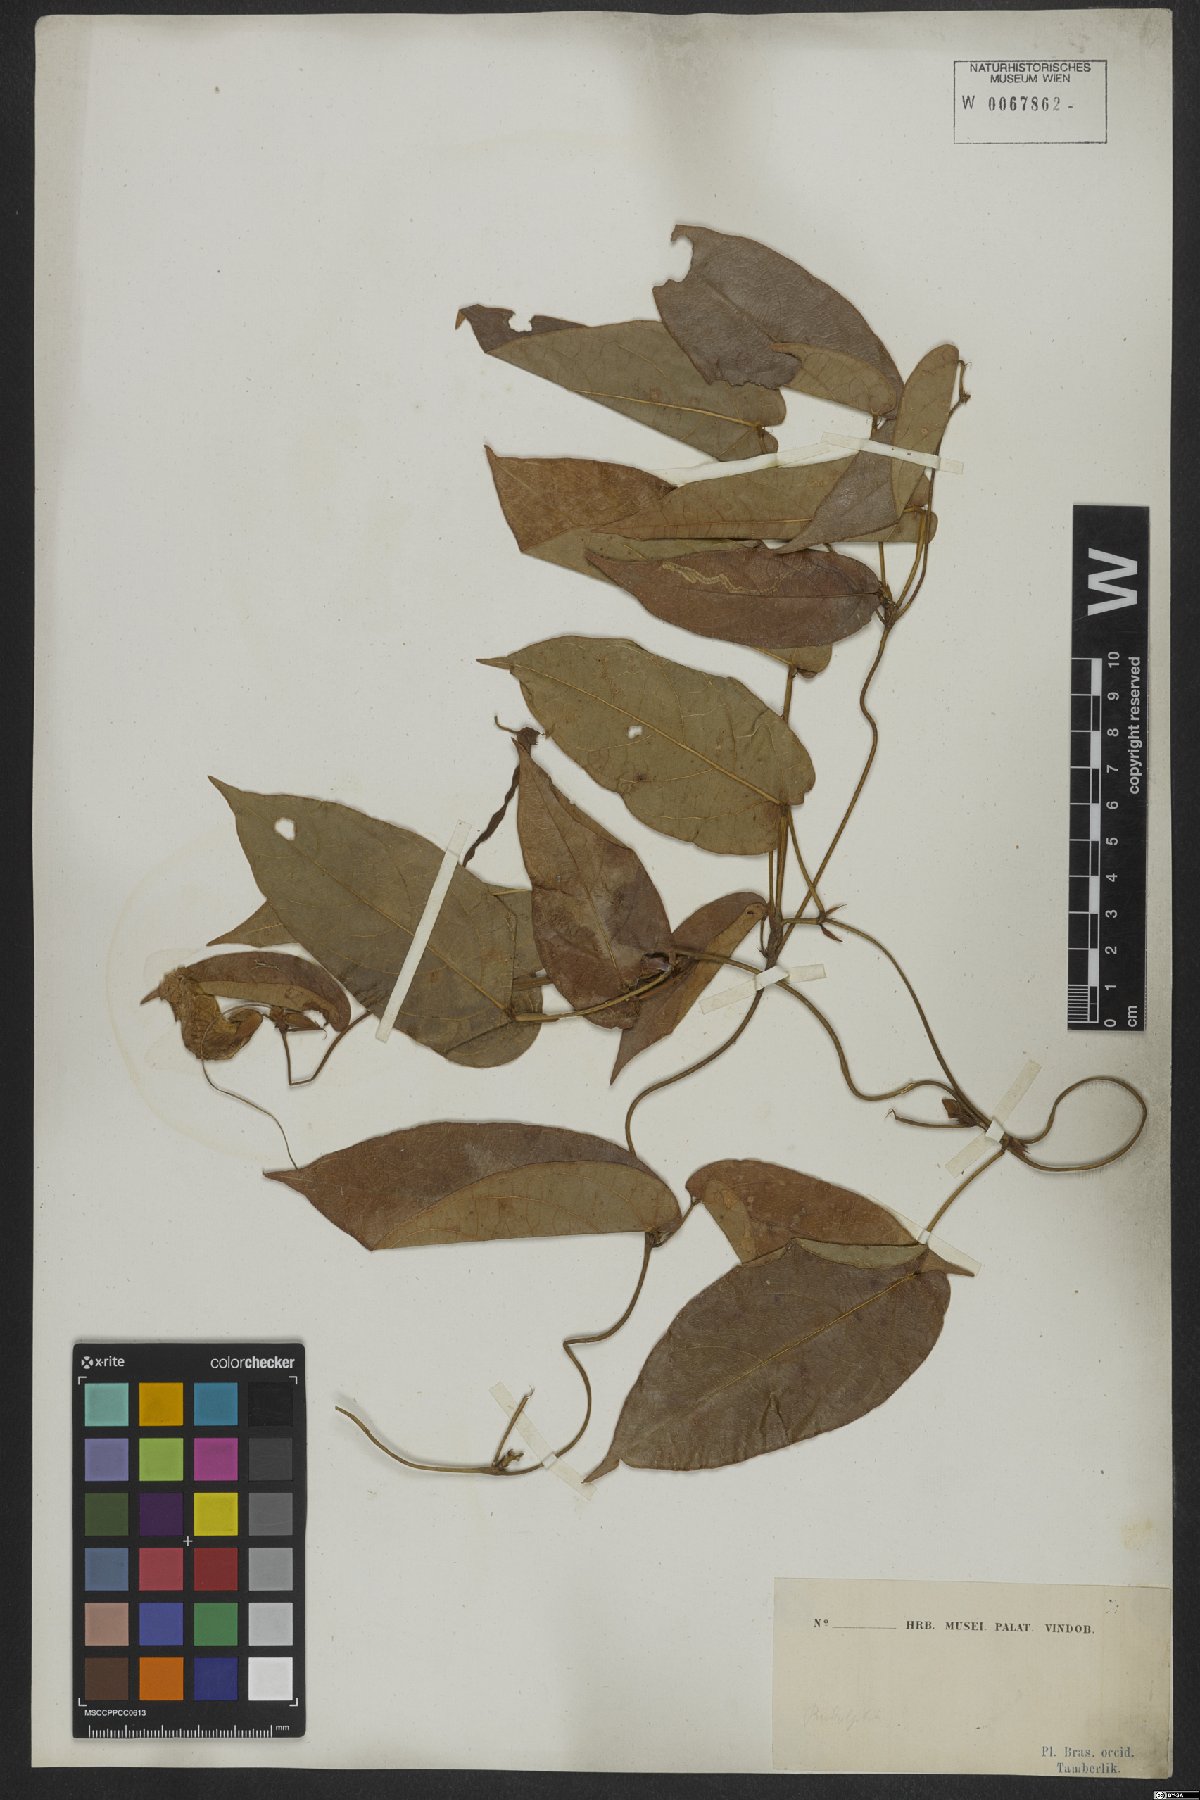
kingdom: Animalia
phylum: Arthropoda
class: Malacostraca
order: Amphipoda
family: Paraleptamphopidae
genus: Rudolphia
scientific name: Rudolphia
